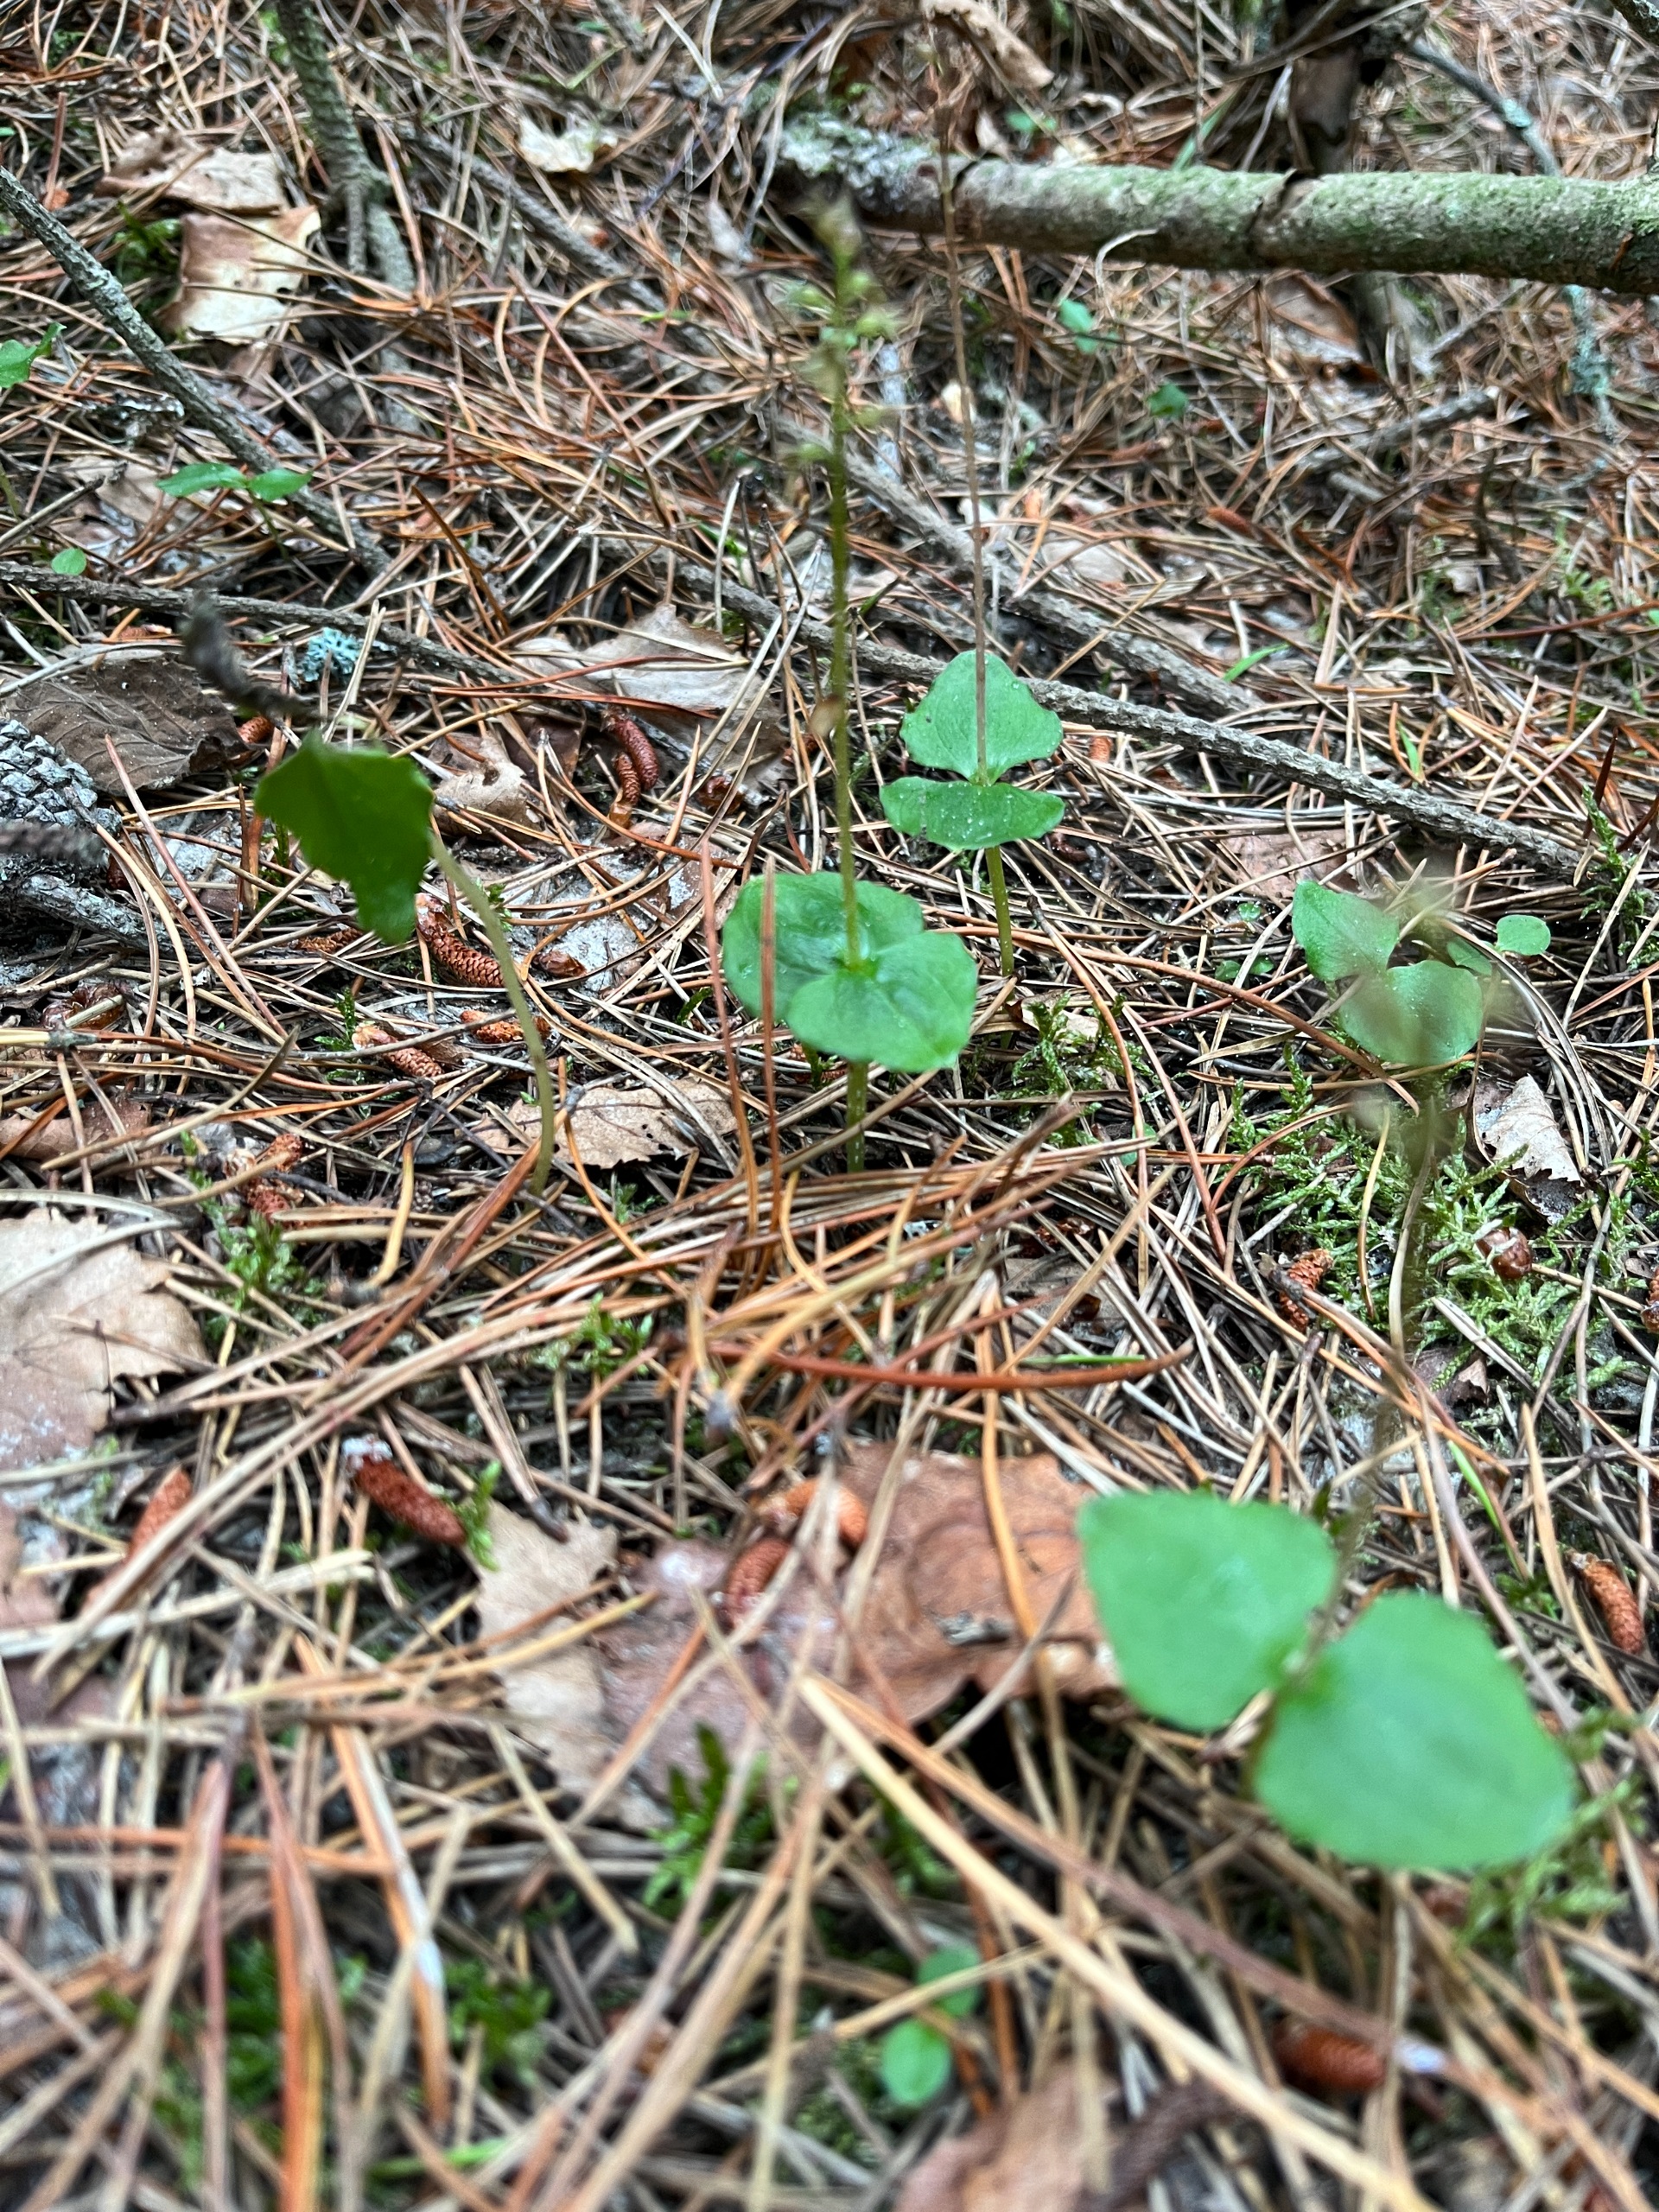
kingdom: Plantae
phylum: Tracheophyta
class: Liliopsida
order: Asparagales
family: Orchidaceae
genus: Neottia
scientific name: Neottia cordata
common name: Hjertebladet fliglæbe
